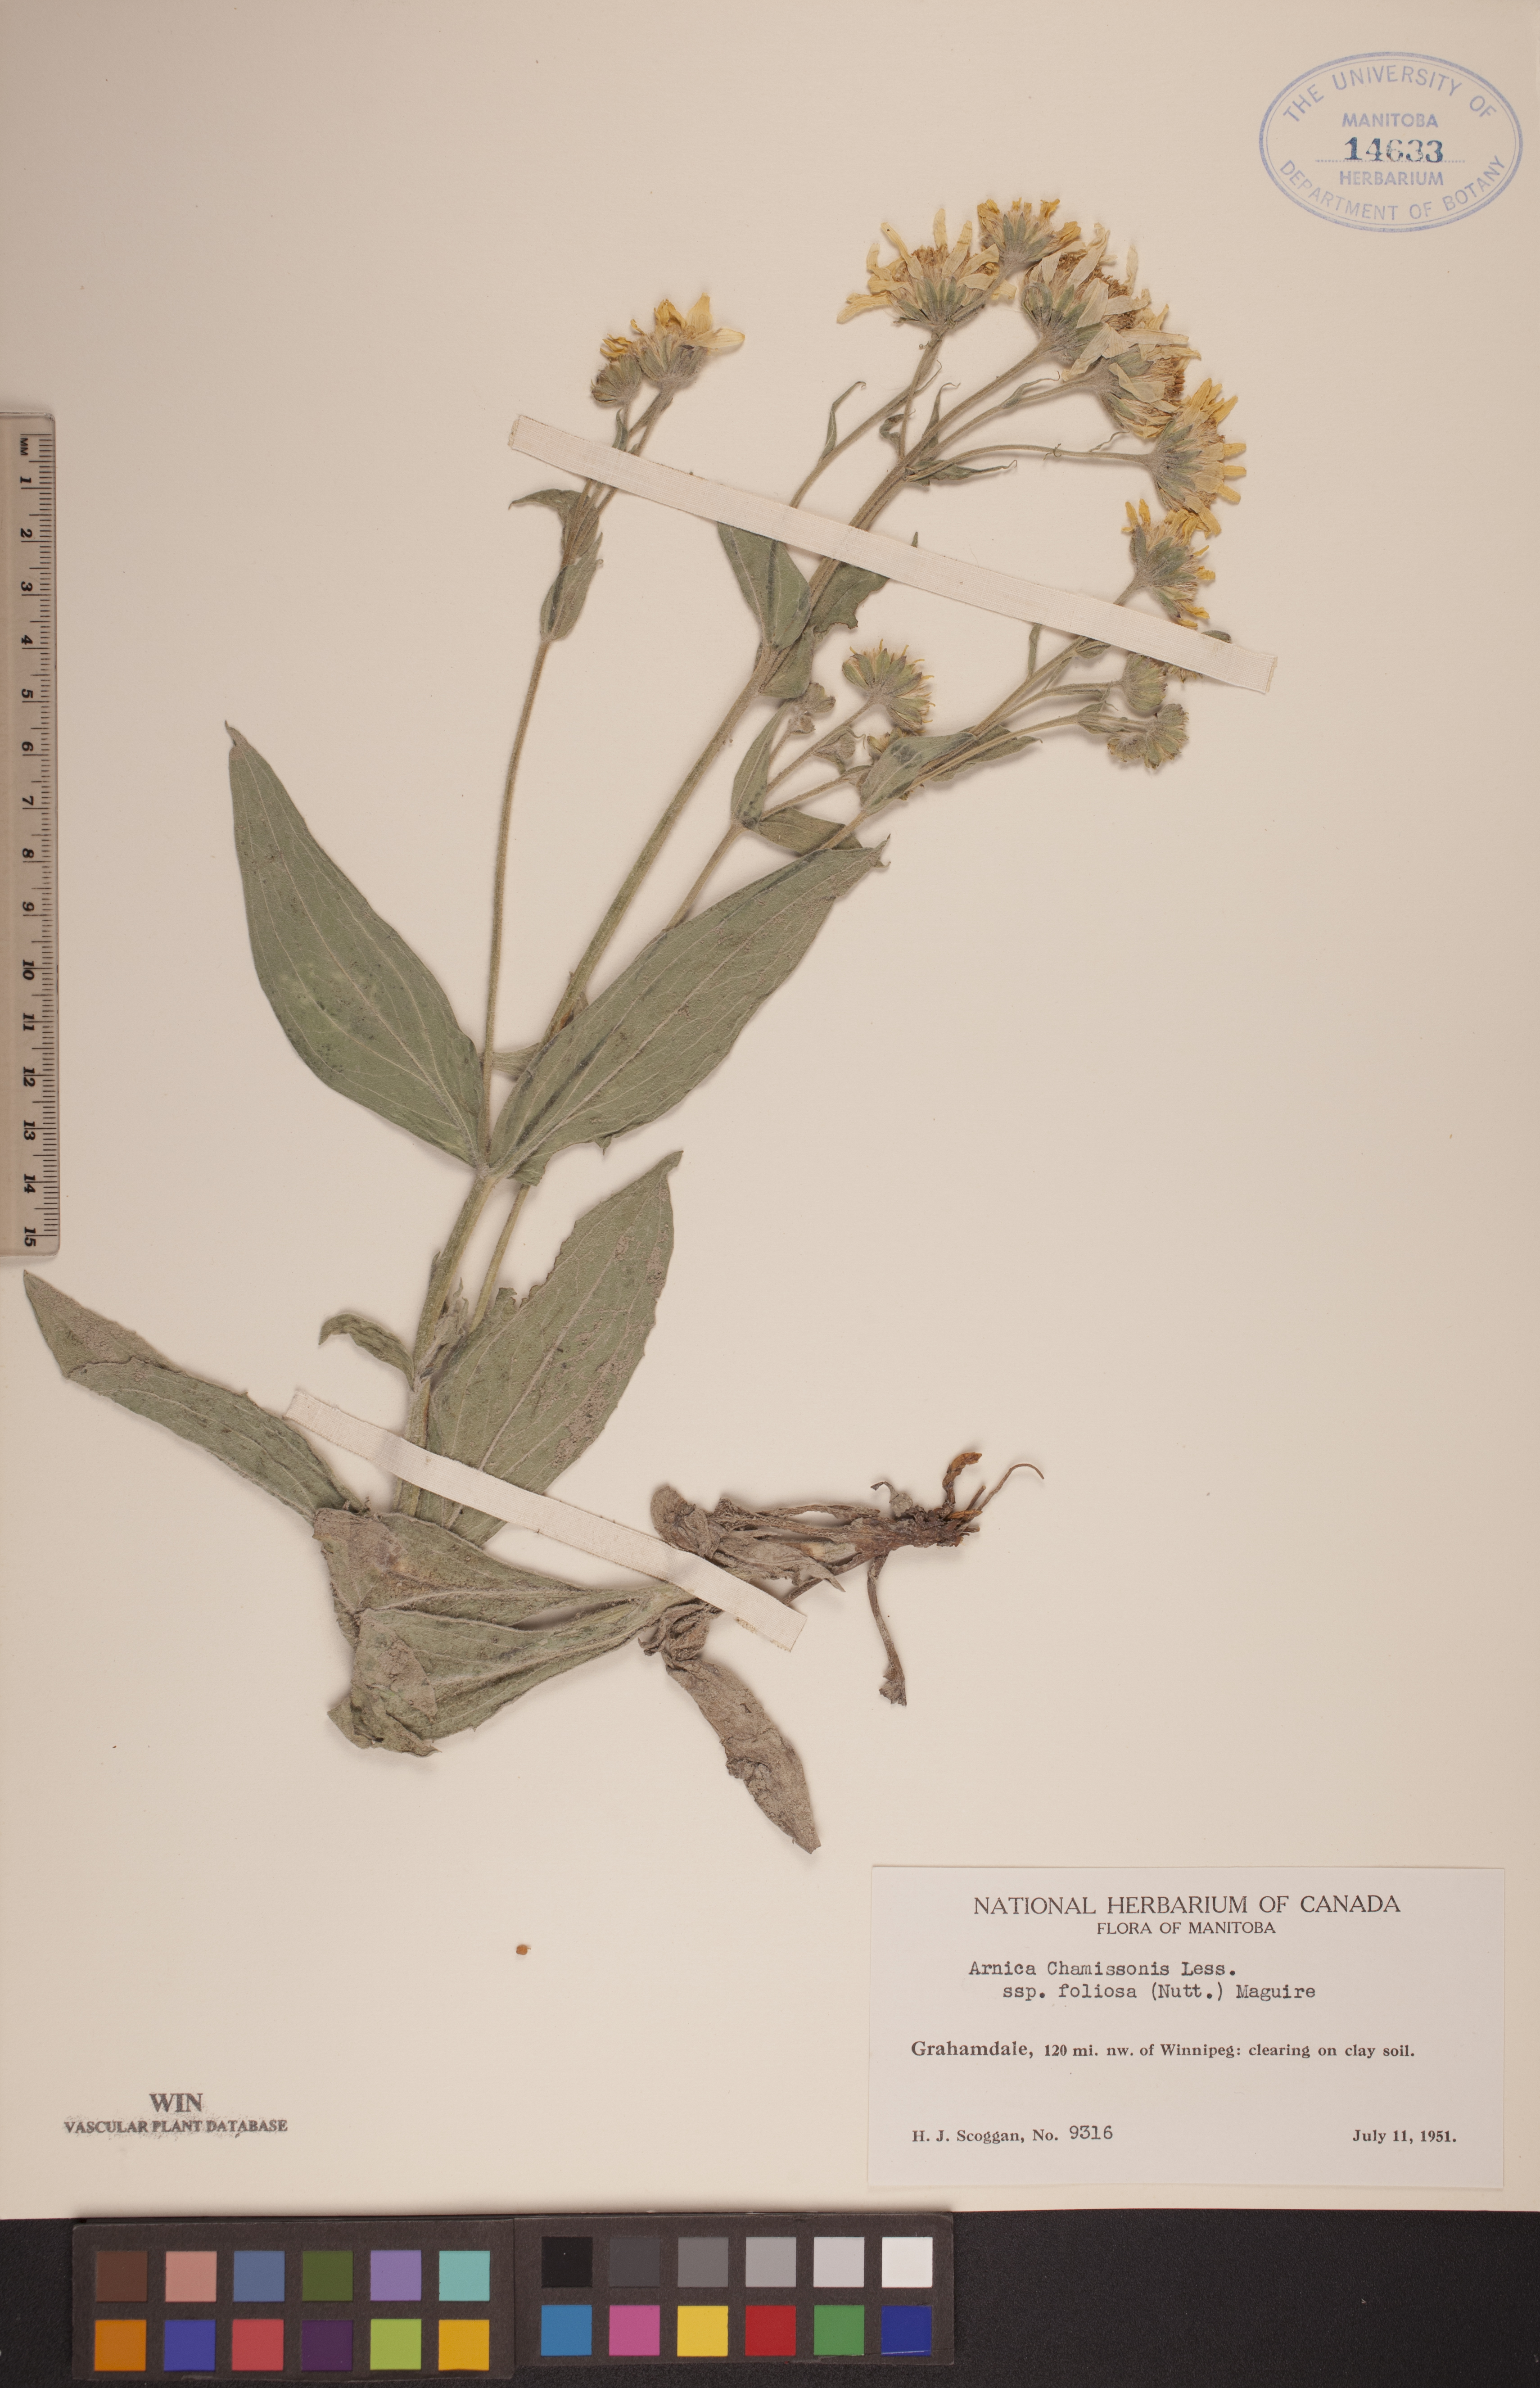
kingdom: Plantae
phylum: Tracheophyta
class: Magnoliopsida
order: Asterales
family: Asteraceae
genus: Arnica
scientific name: Arnica chamissonis
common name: Leafy arnica
